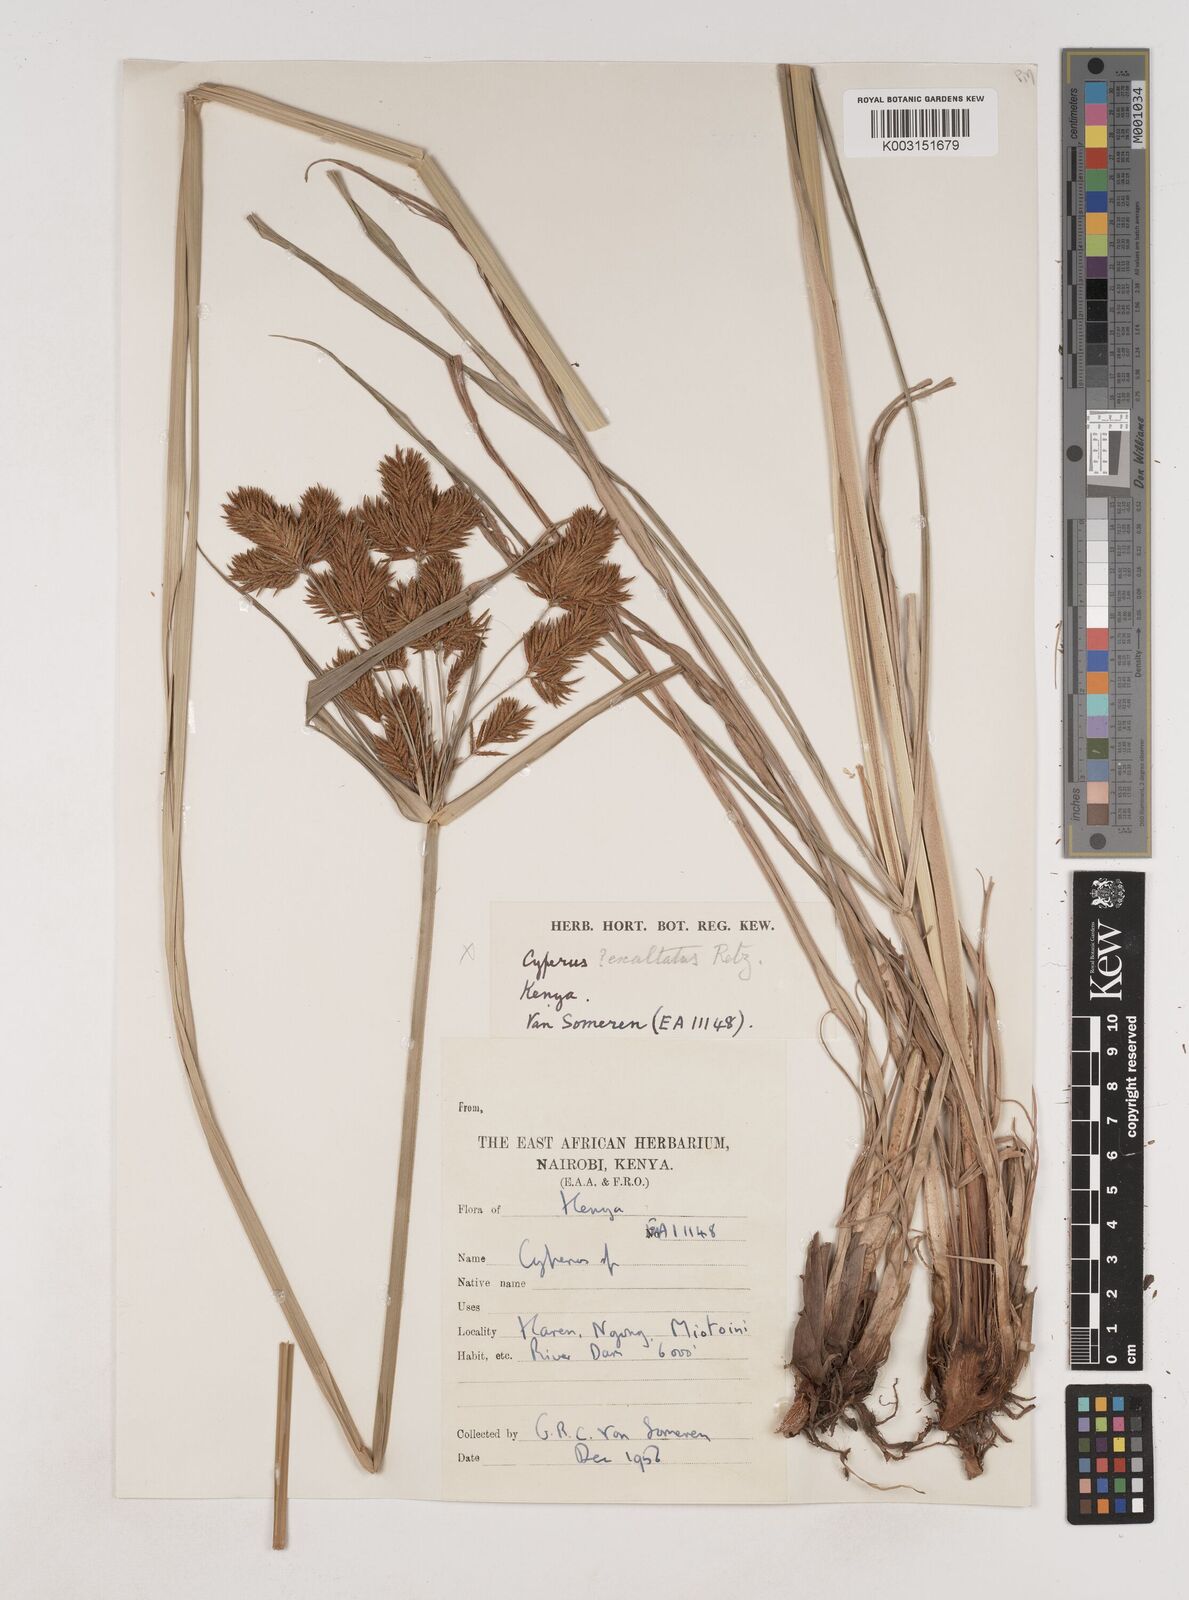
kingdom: Plantae
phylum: Tracheophyta
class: Liliopsida
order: Poales
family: Cyperaceae
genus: Cyperus
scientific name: Cyperus exaltatus
